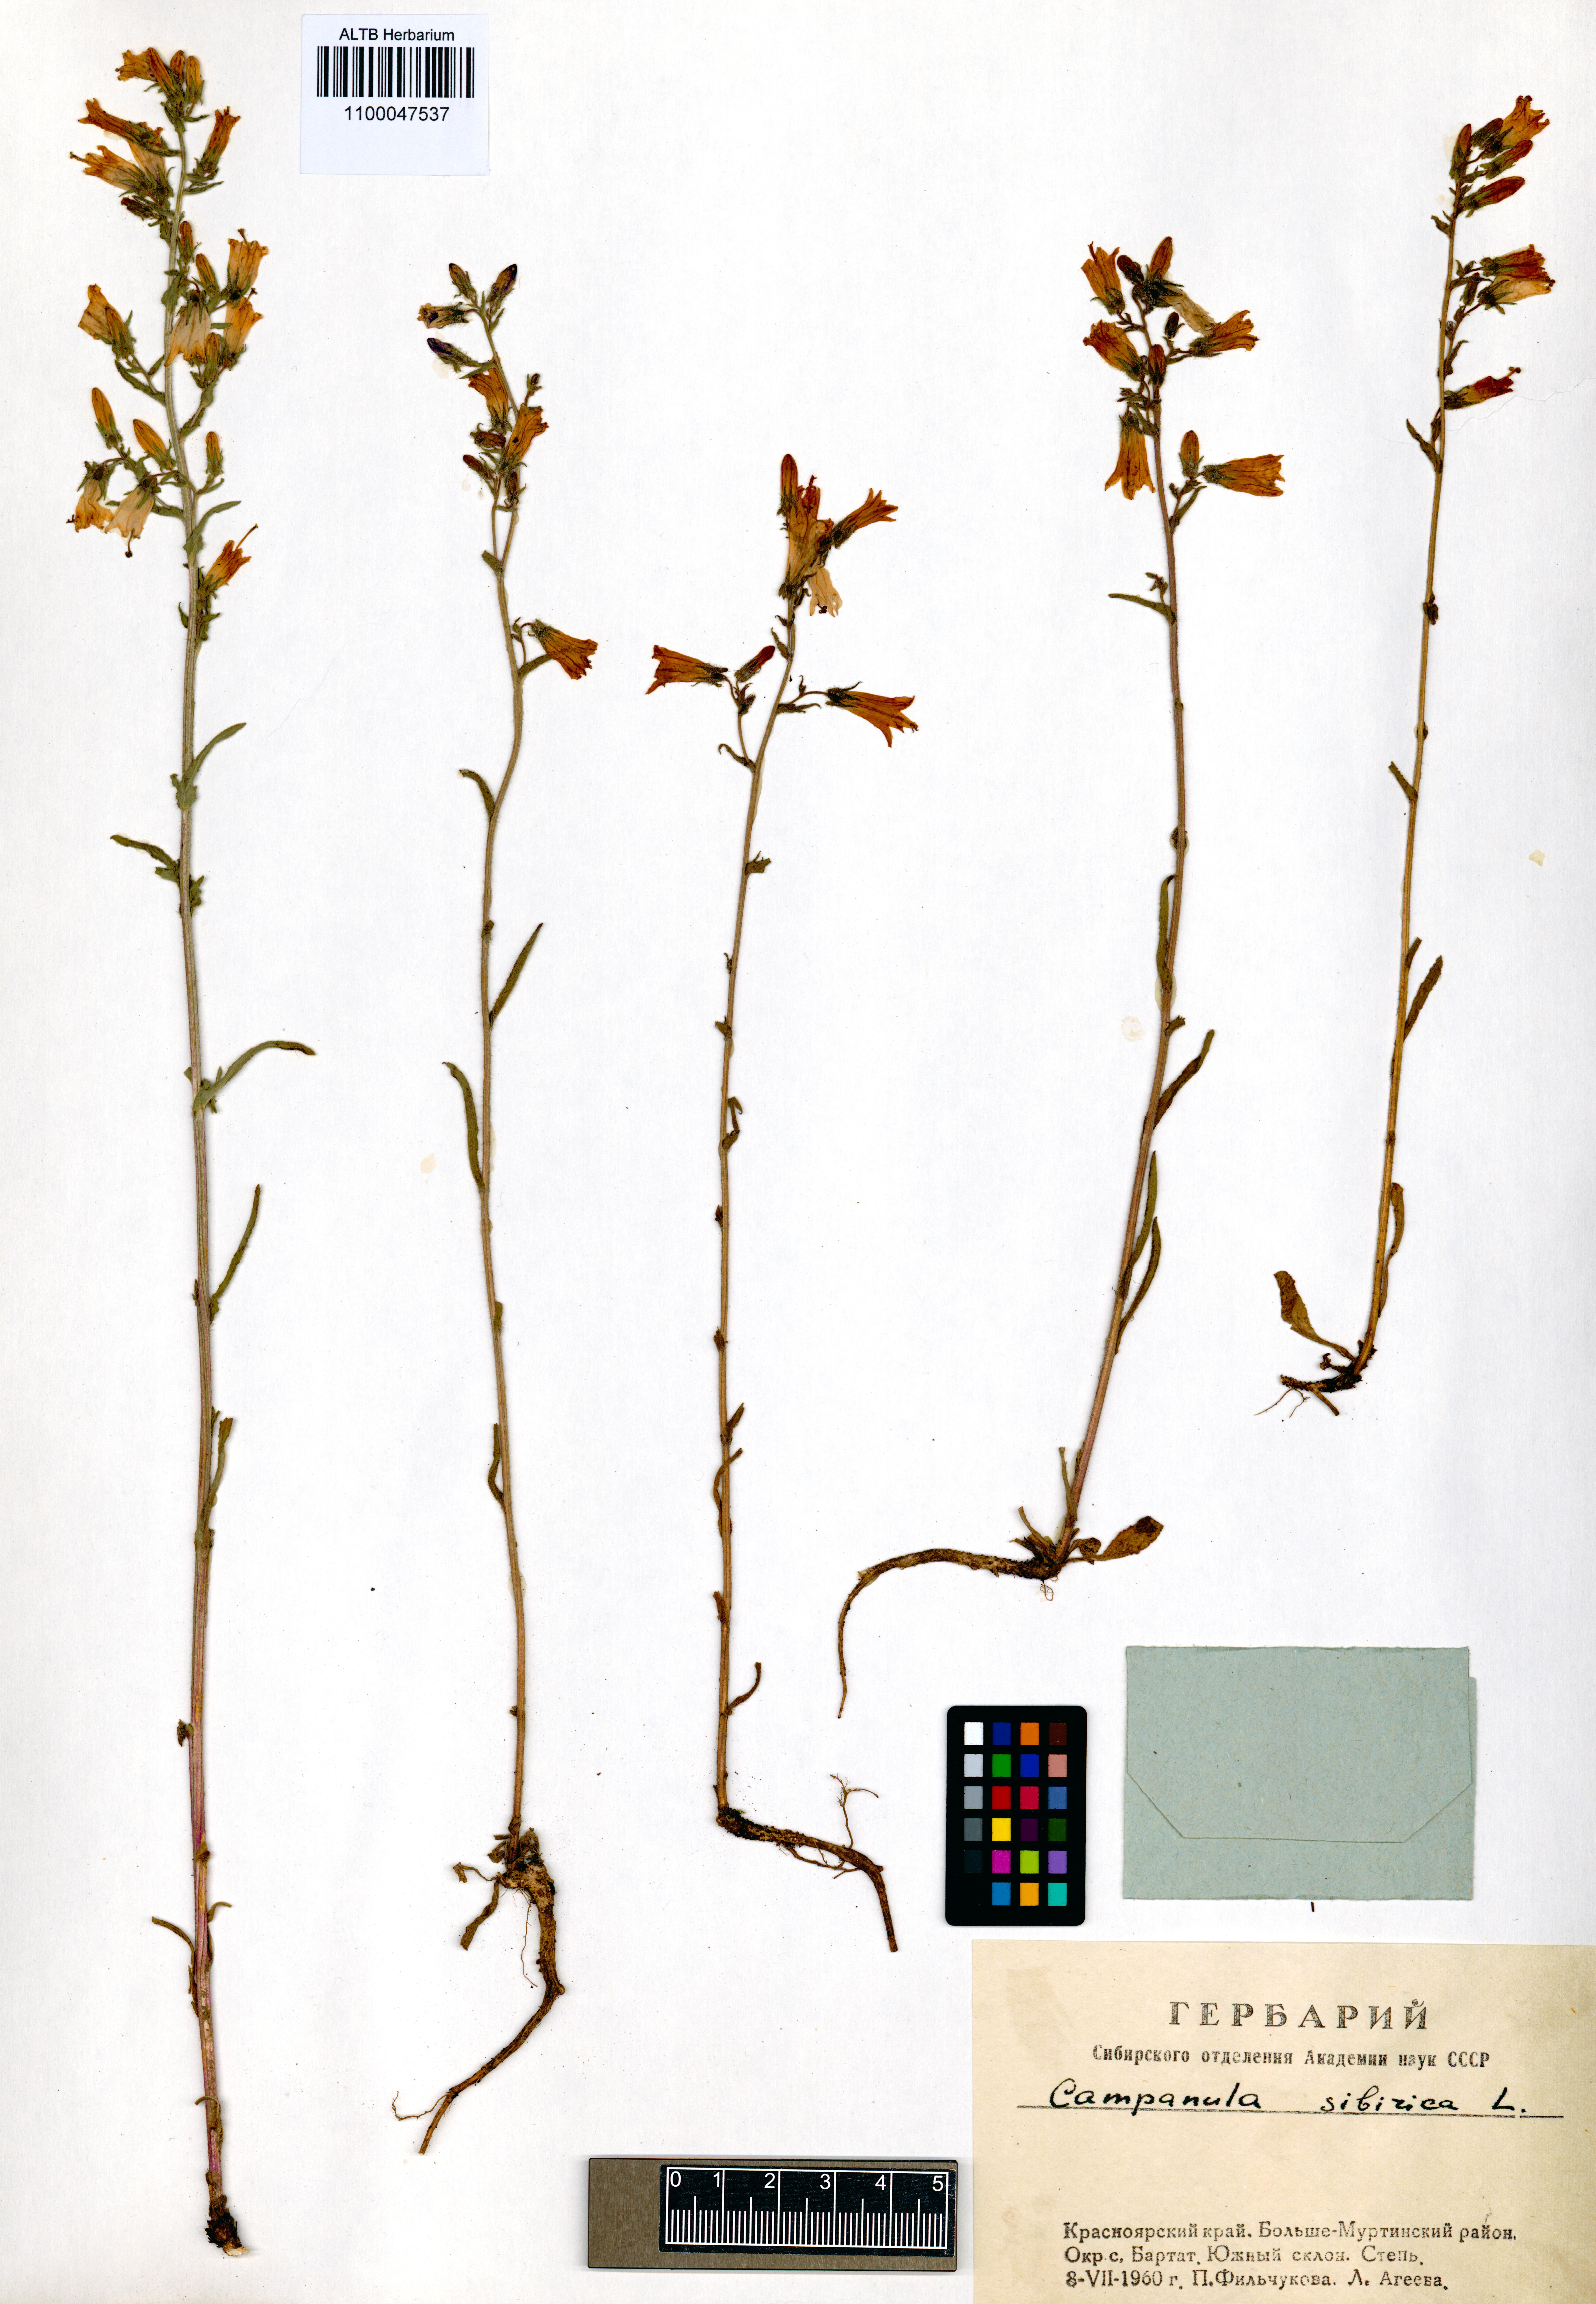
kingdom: Plantae
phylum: Tracheophyta
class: Magnoliopsida
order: Asterales
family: Campanulaceae
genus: Campanula
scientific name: Campanula sibirica
